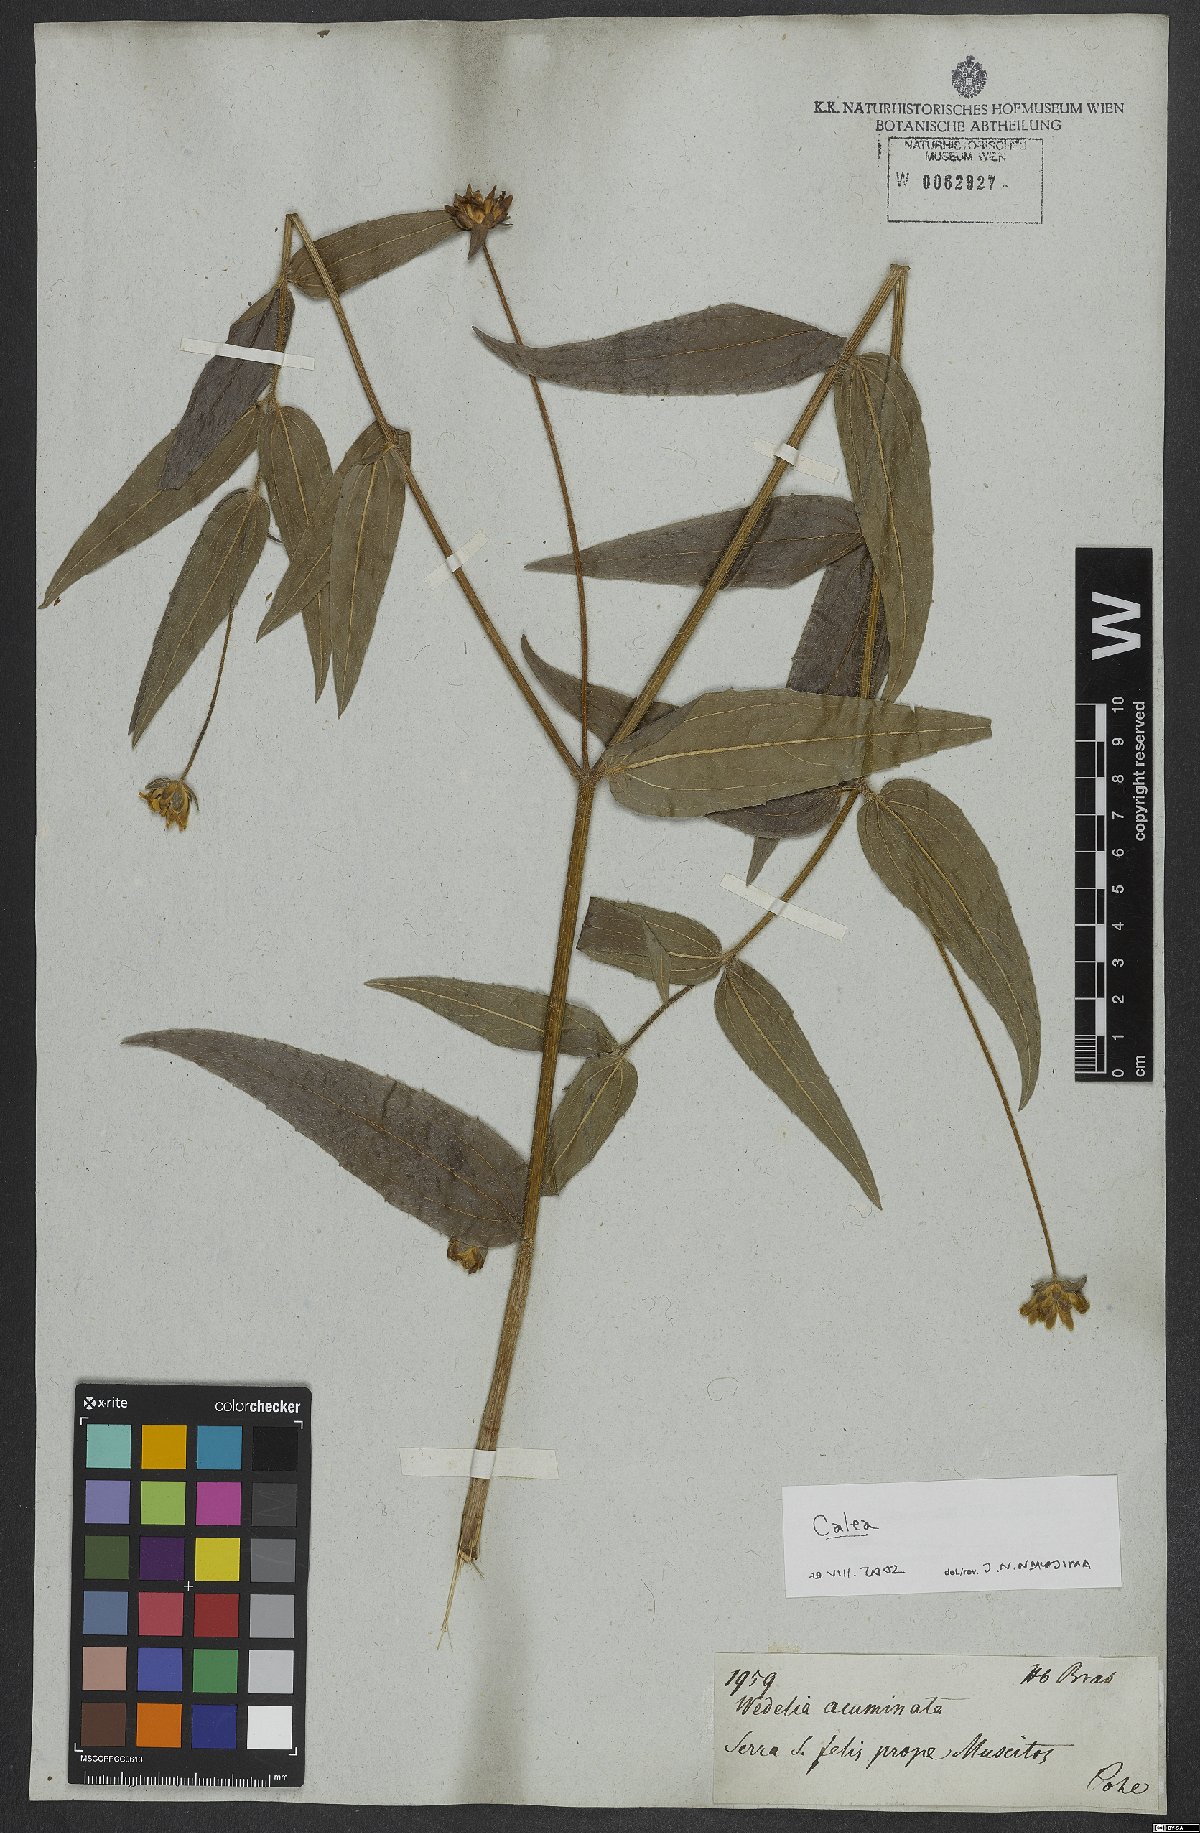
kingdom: Plantae
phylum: Tracheophyta
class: Magnoliopsida
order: Asterales
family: Asteraceae
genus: Calea
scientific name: Calea
